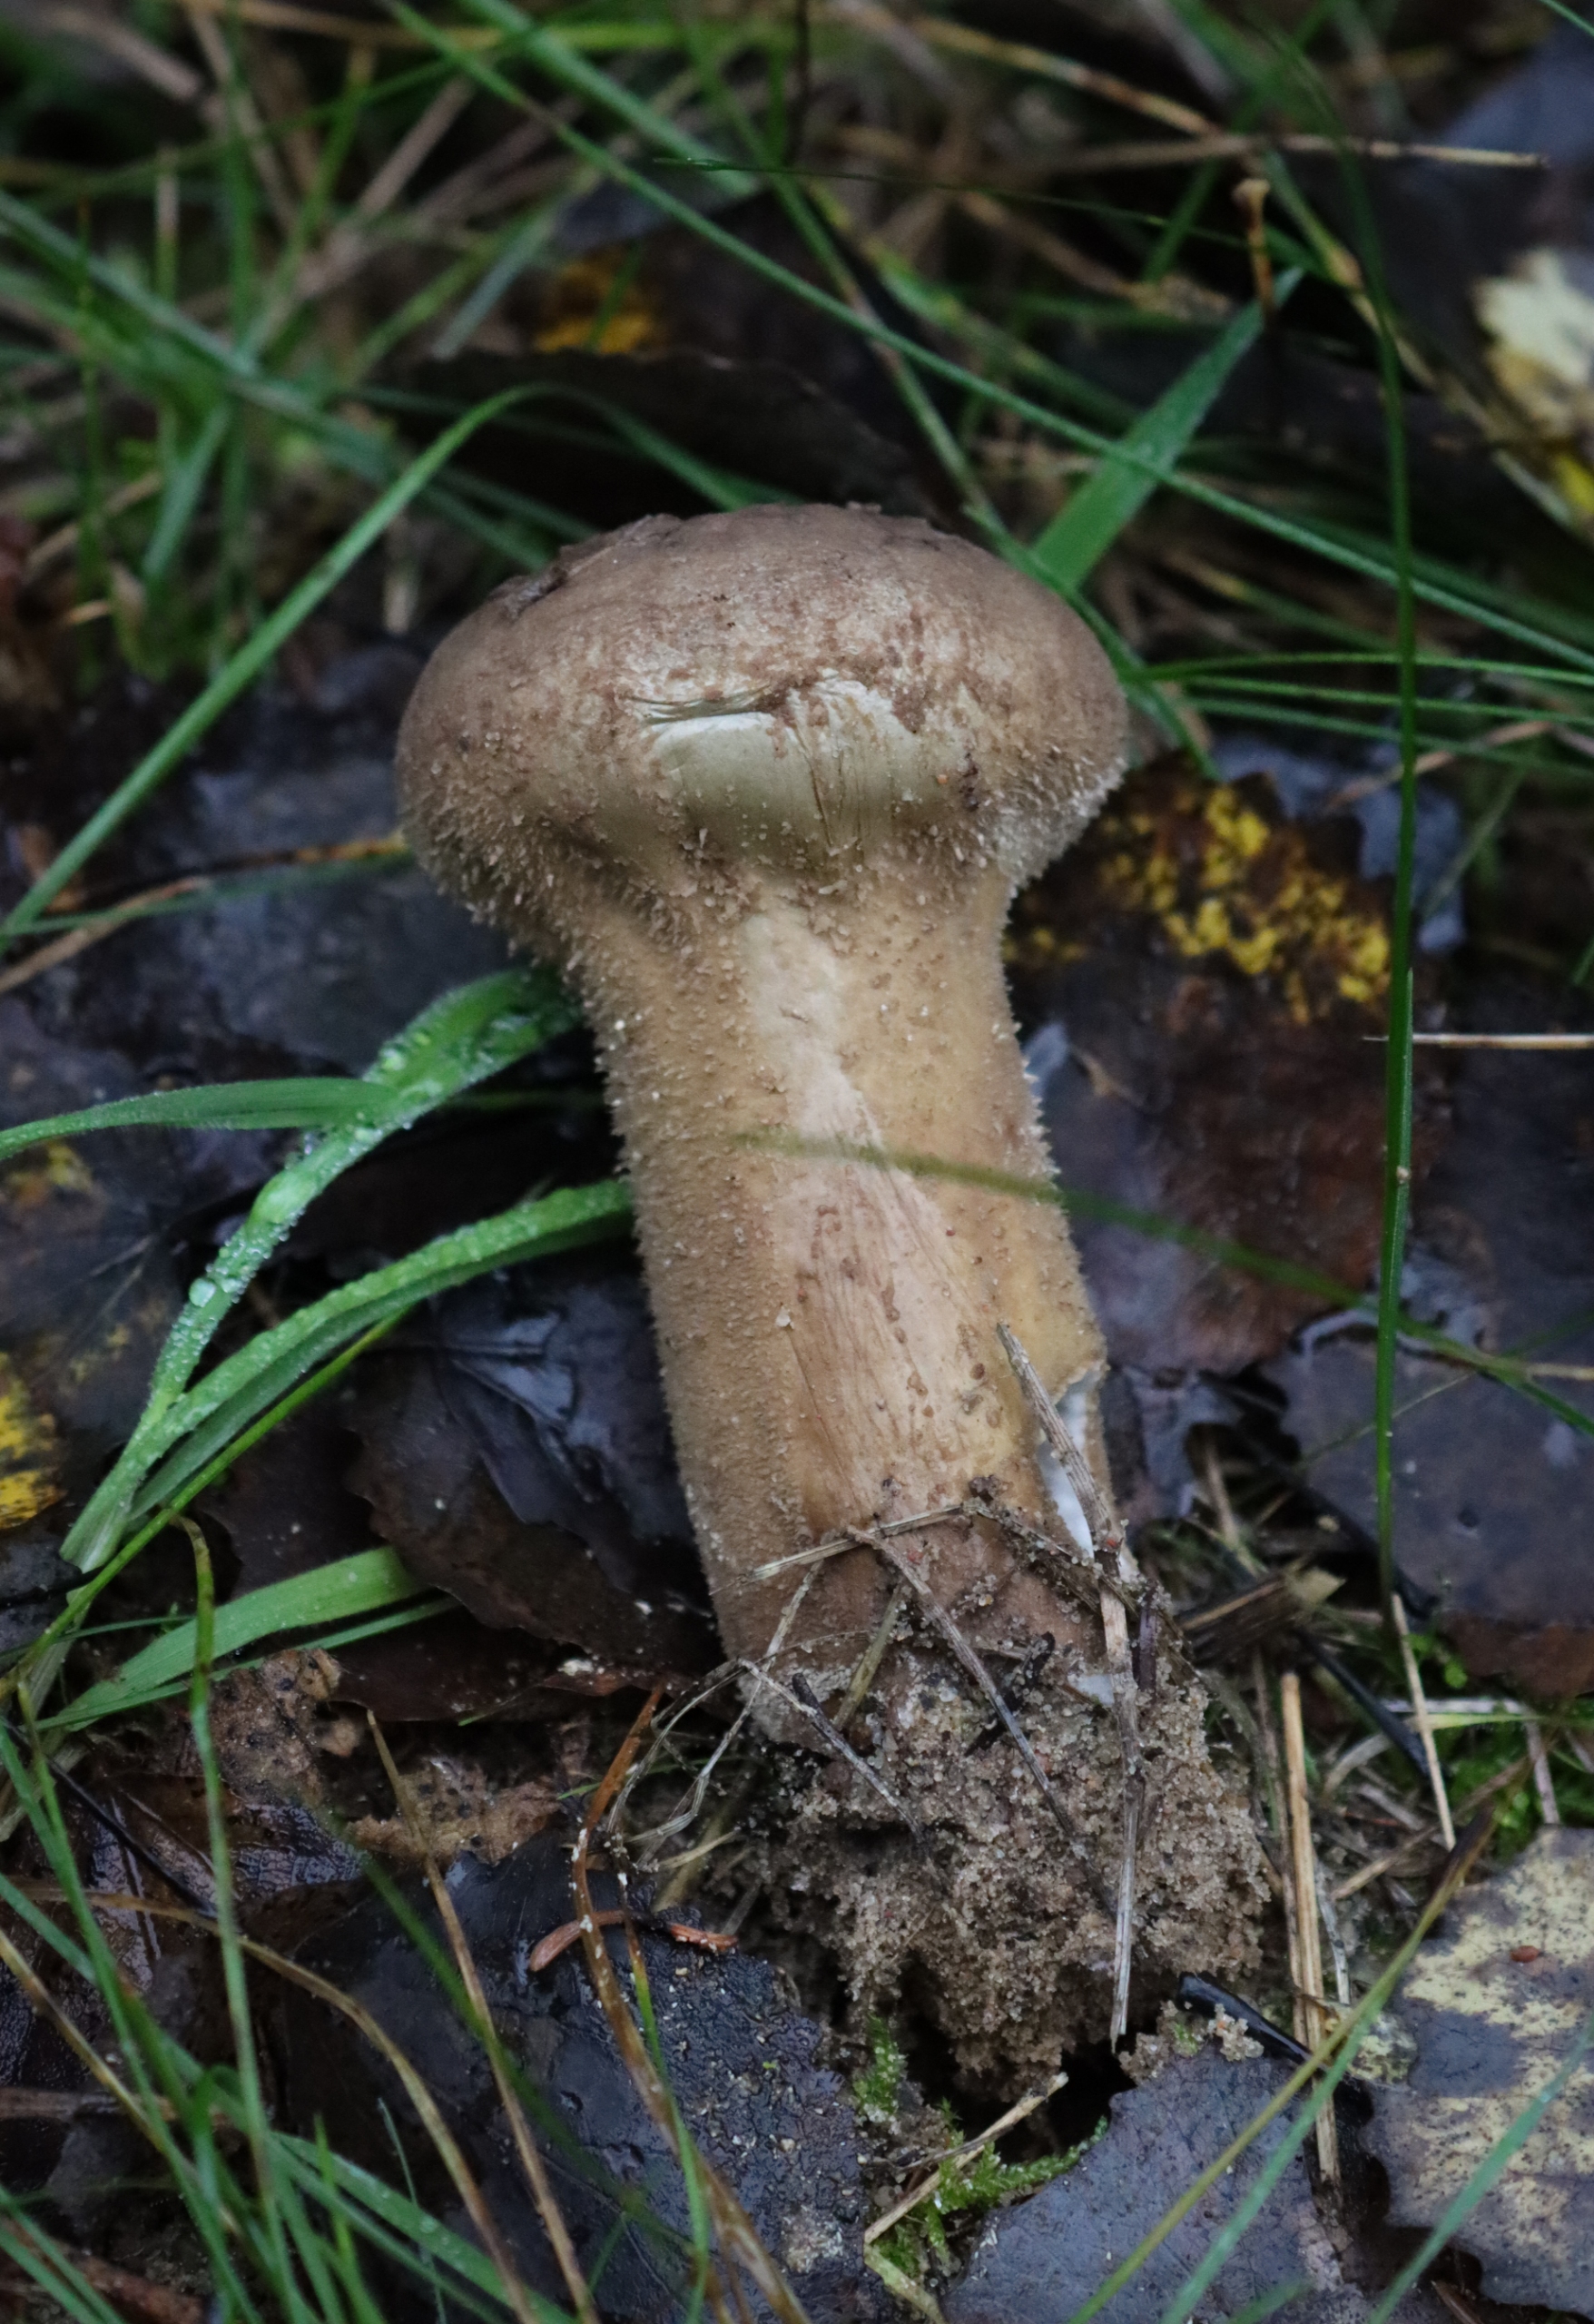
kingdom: Fungi
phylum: Basidiomycota
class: Agaricomycetes
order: Agaricales
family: Lycoperdaceae
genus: Lycoperdon
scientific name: Lycoperdon excipuliforme
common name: Højstokket støvbold
